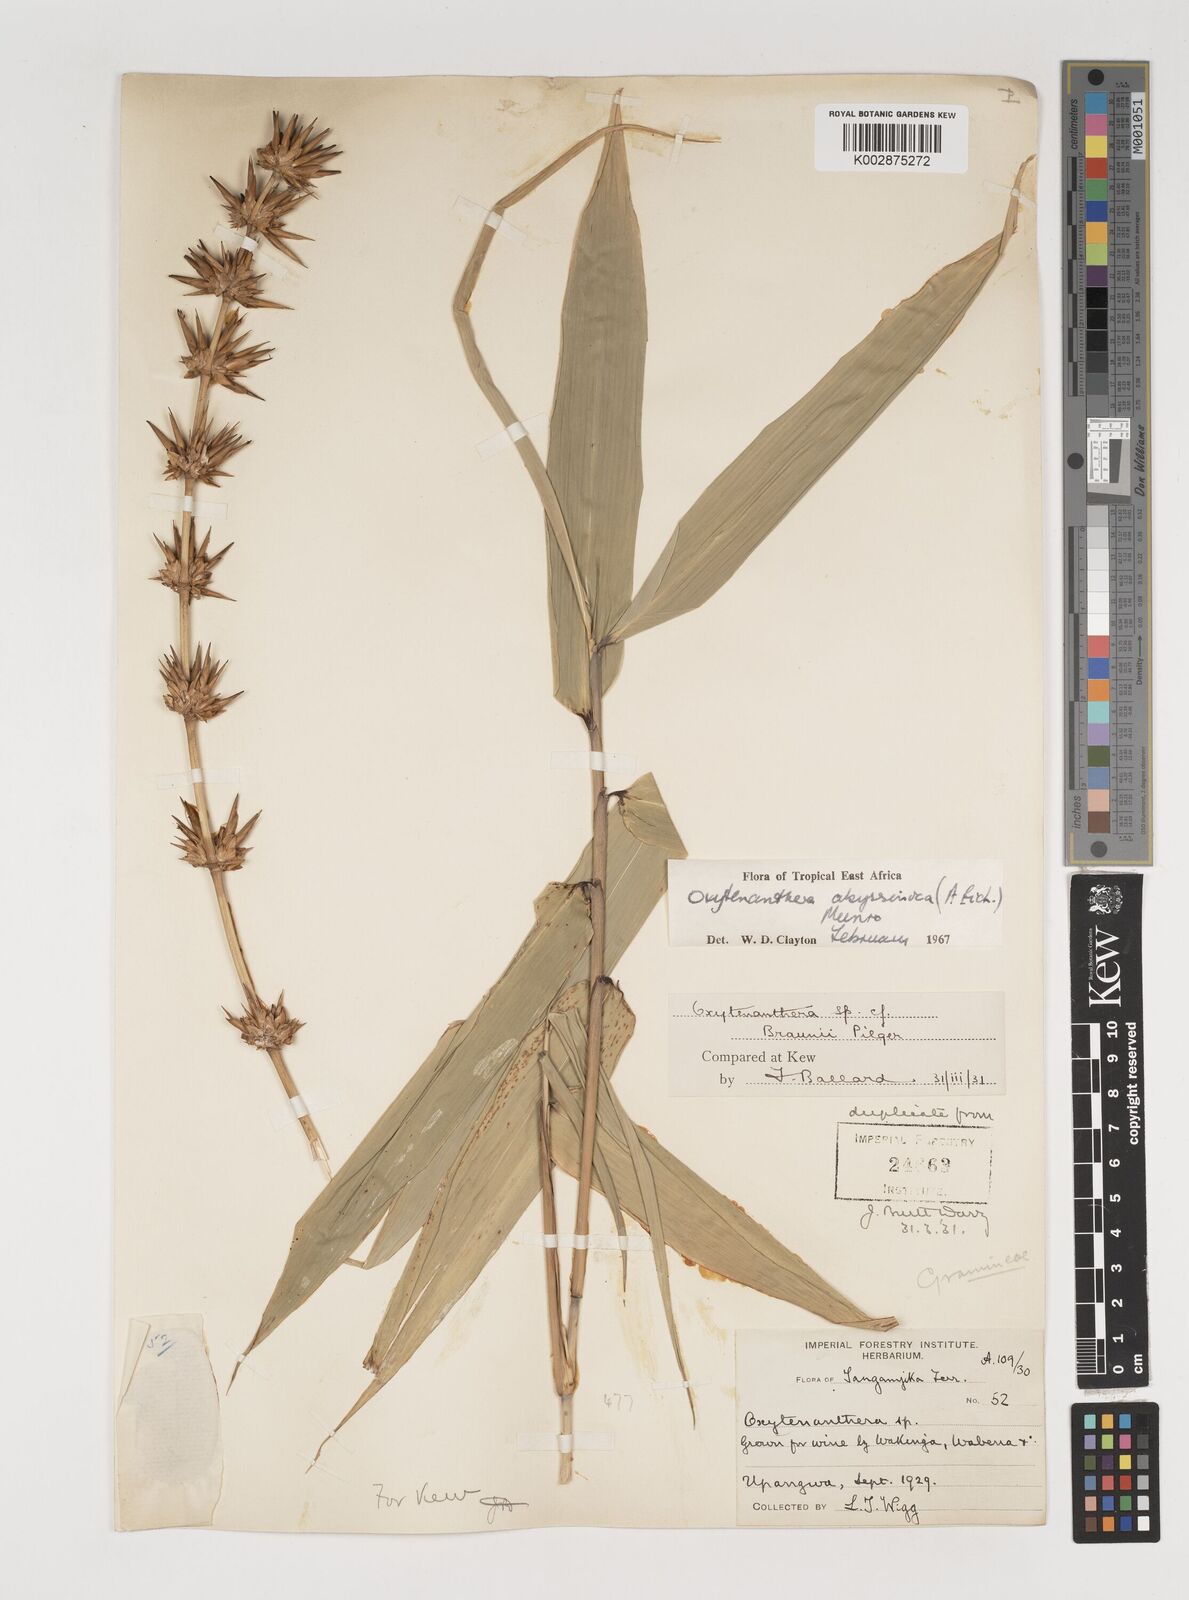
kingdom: Plantae
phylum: Tracheophyta
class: Liliopsida
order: Poales
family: Poaceae
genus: Oxytenanthera
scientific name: Oxytenanthera abyssinica
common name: Wine bamboo
